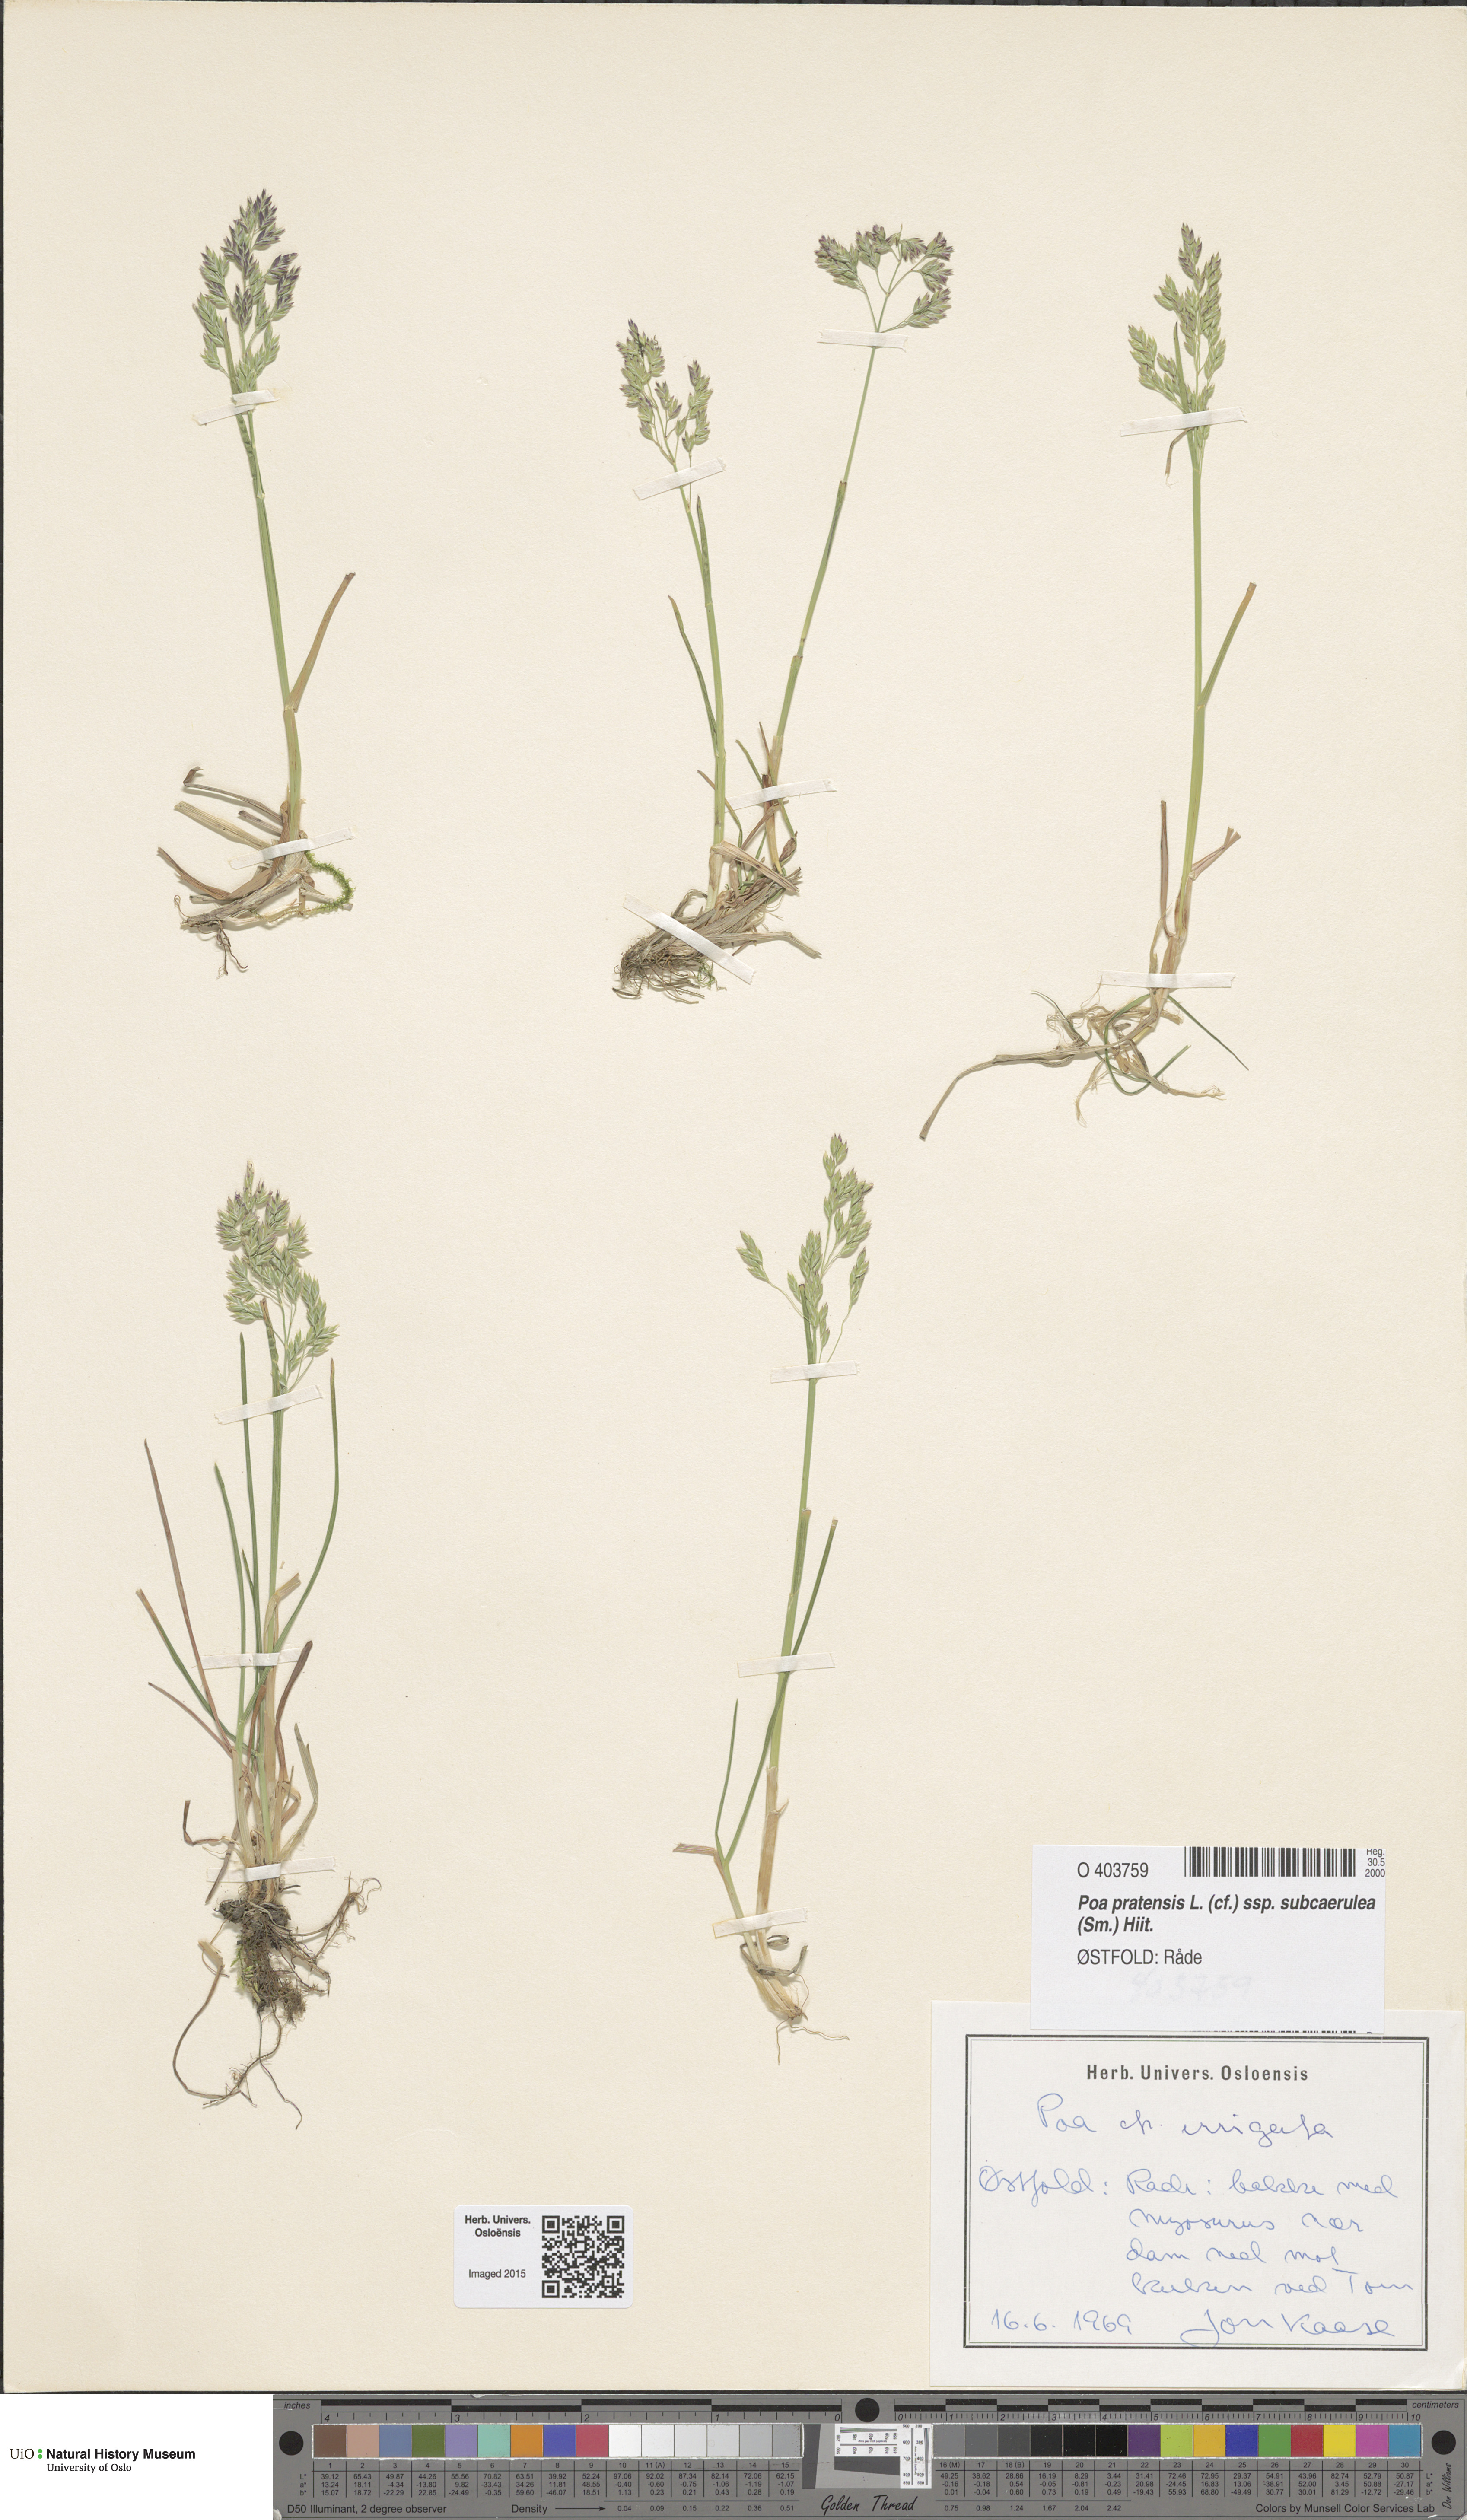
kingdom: Plantae
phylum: Tracheophyta
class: Liliopsida
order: Poales
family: Poaceae
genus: Poa
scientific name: Poa humilis
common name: Spreading meadow-grass
